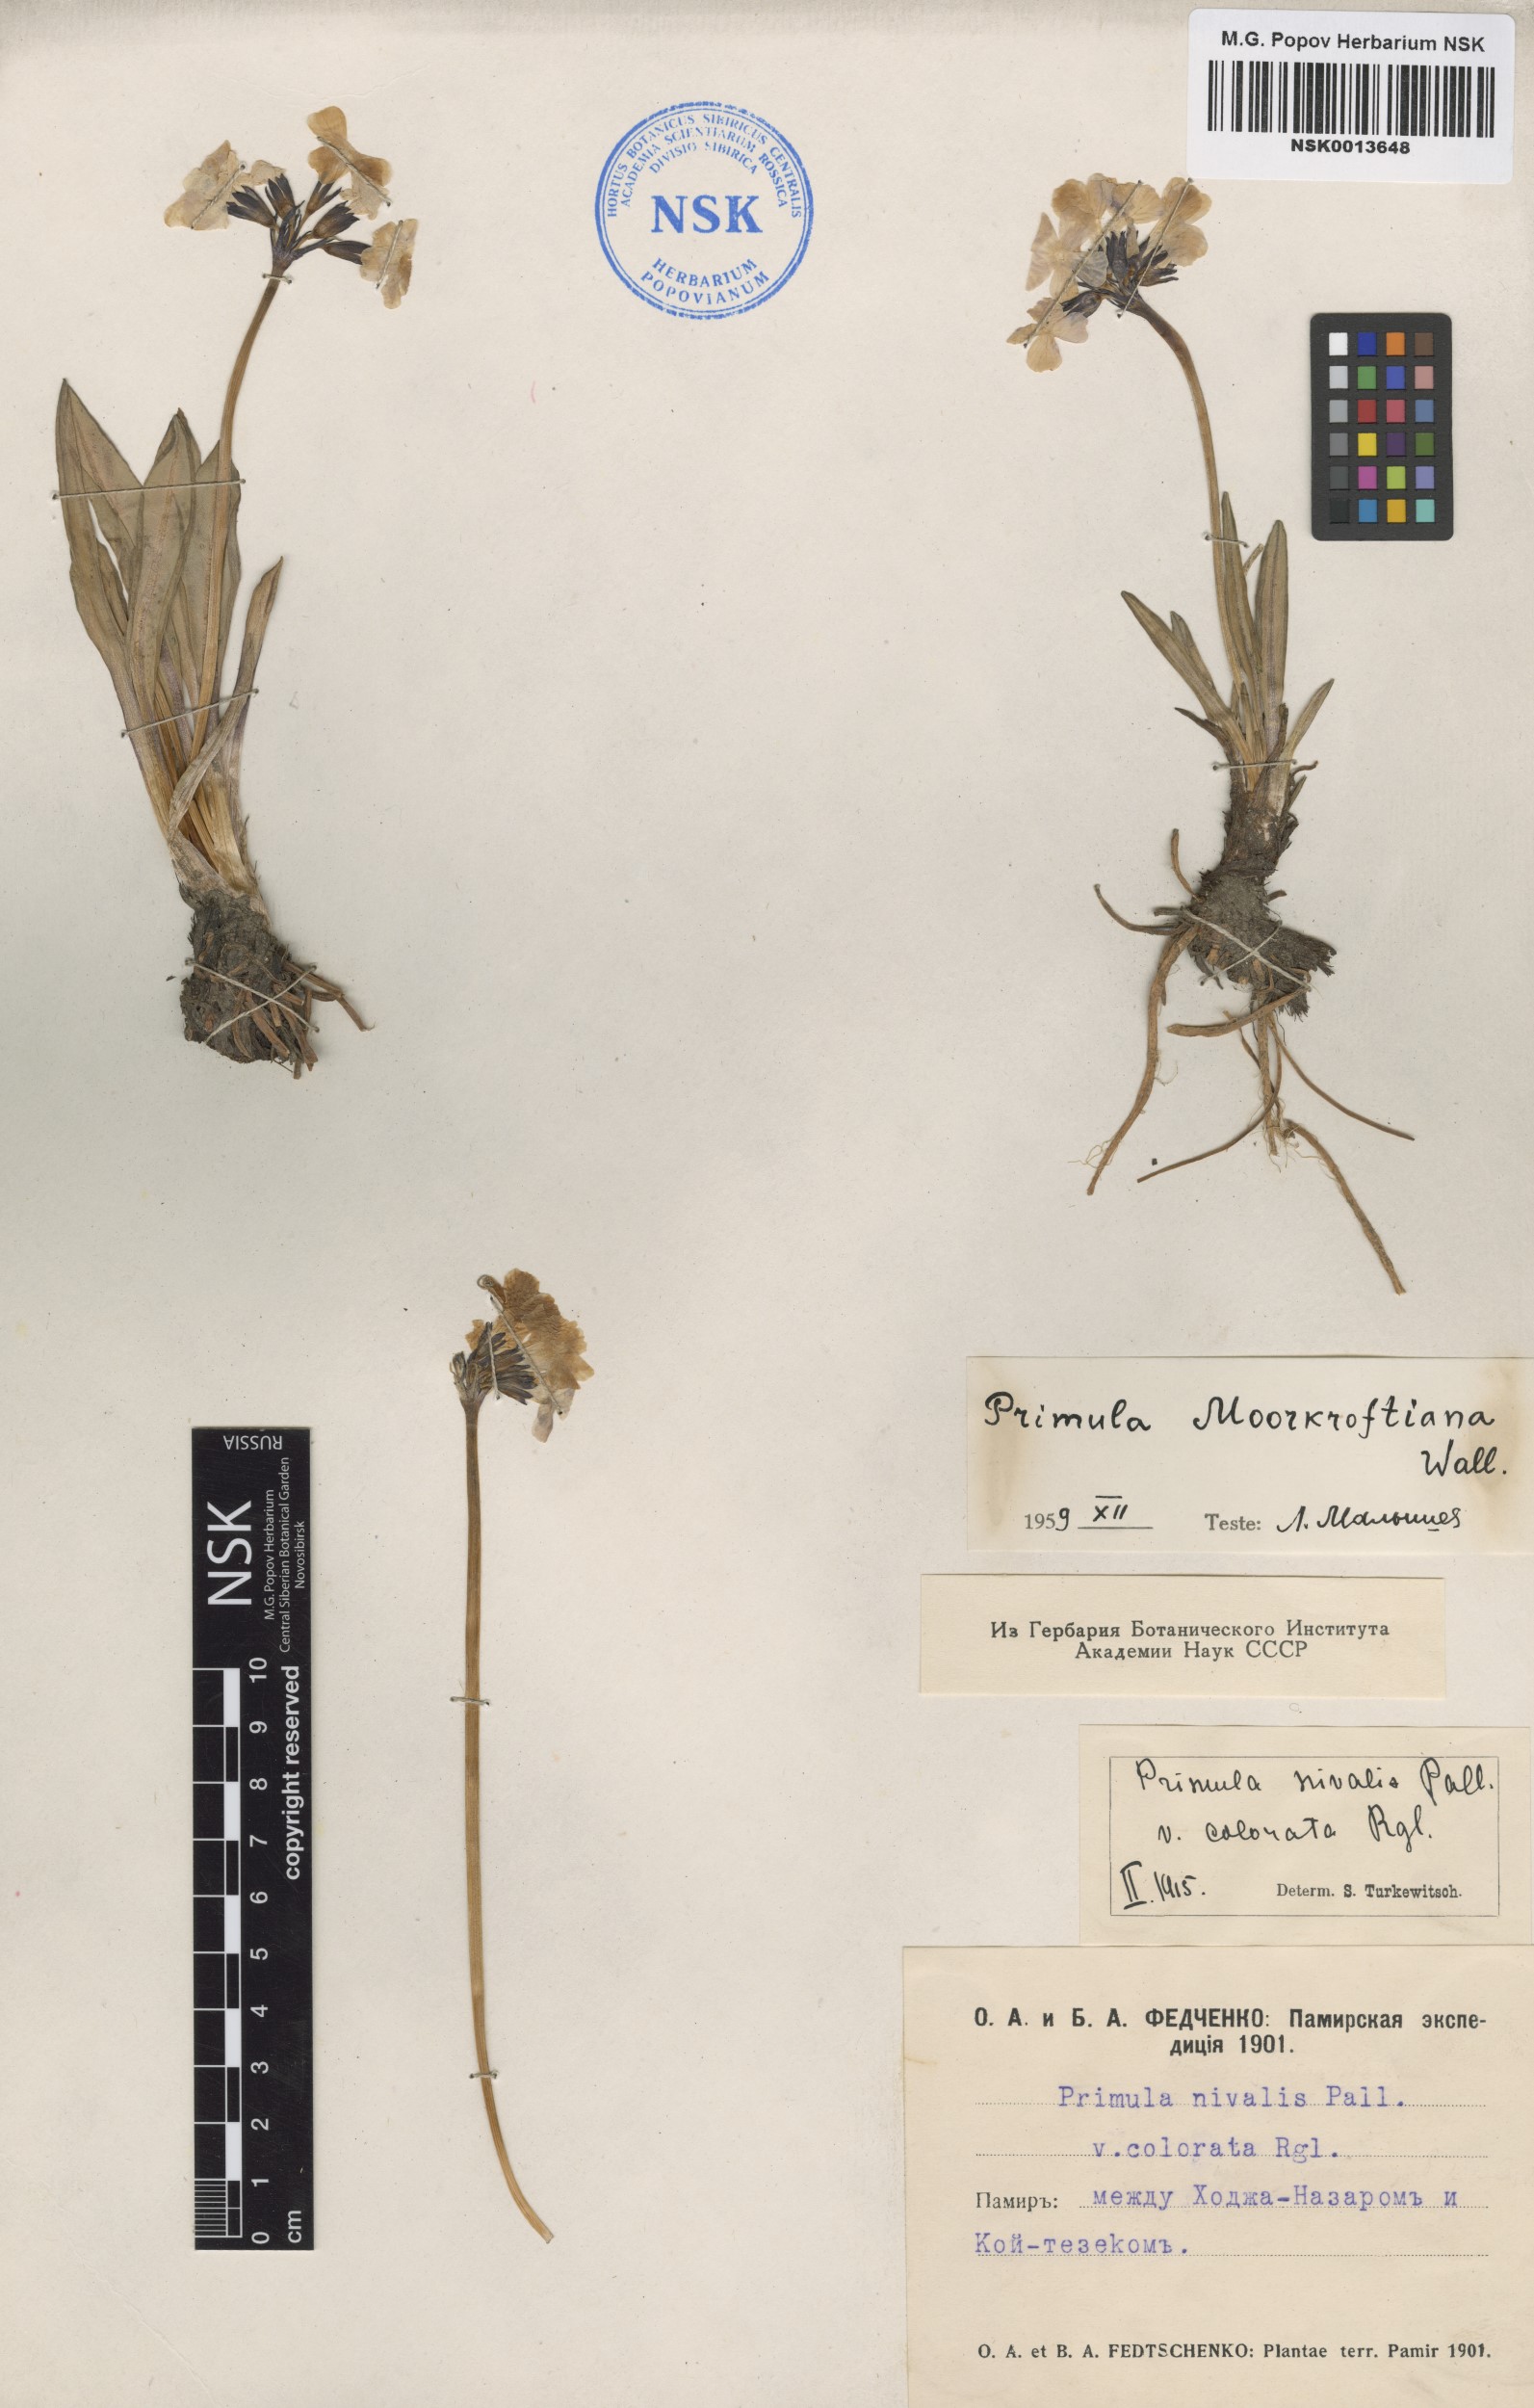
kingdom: Plantae
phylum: Tracheophyta
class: Magnoliopsida
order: Ericales
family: Primulaceae
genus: Primula
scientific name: Primula nivalis
